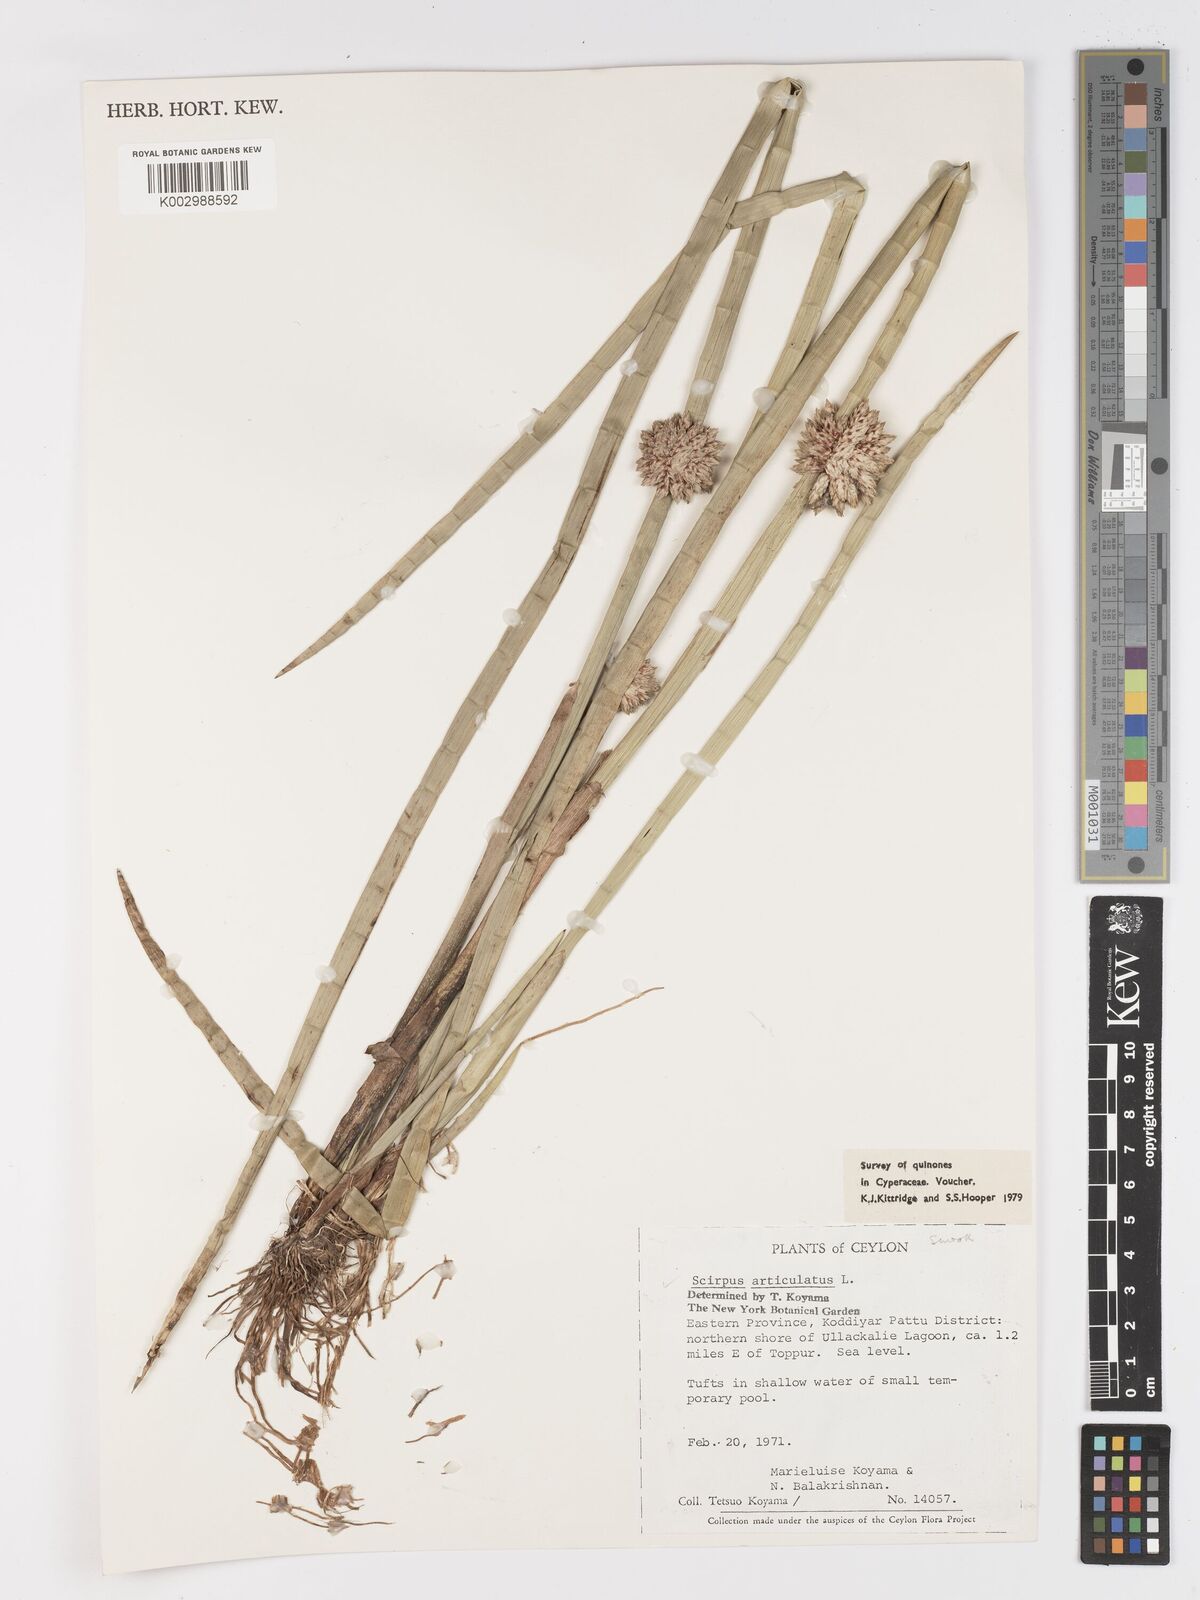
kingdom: Plantae
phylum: Tracheophyta
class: Liliopsida
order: Poales
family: Cyperaceae
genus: Schoenoplectiella
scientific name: Schoenoplectiella articulata
